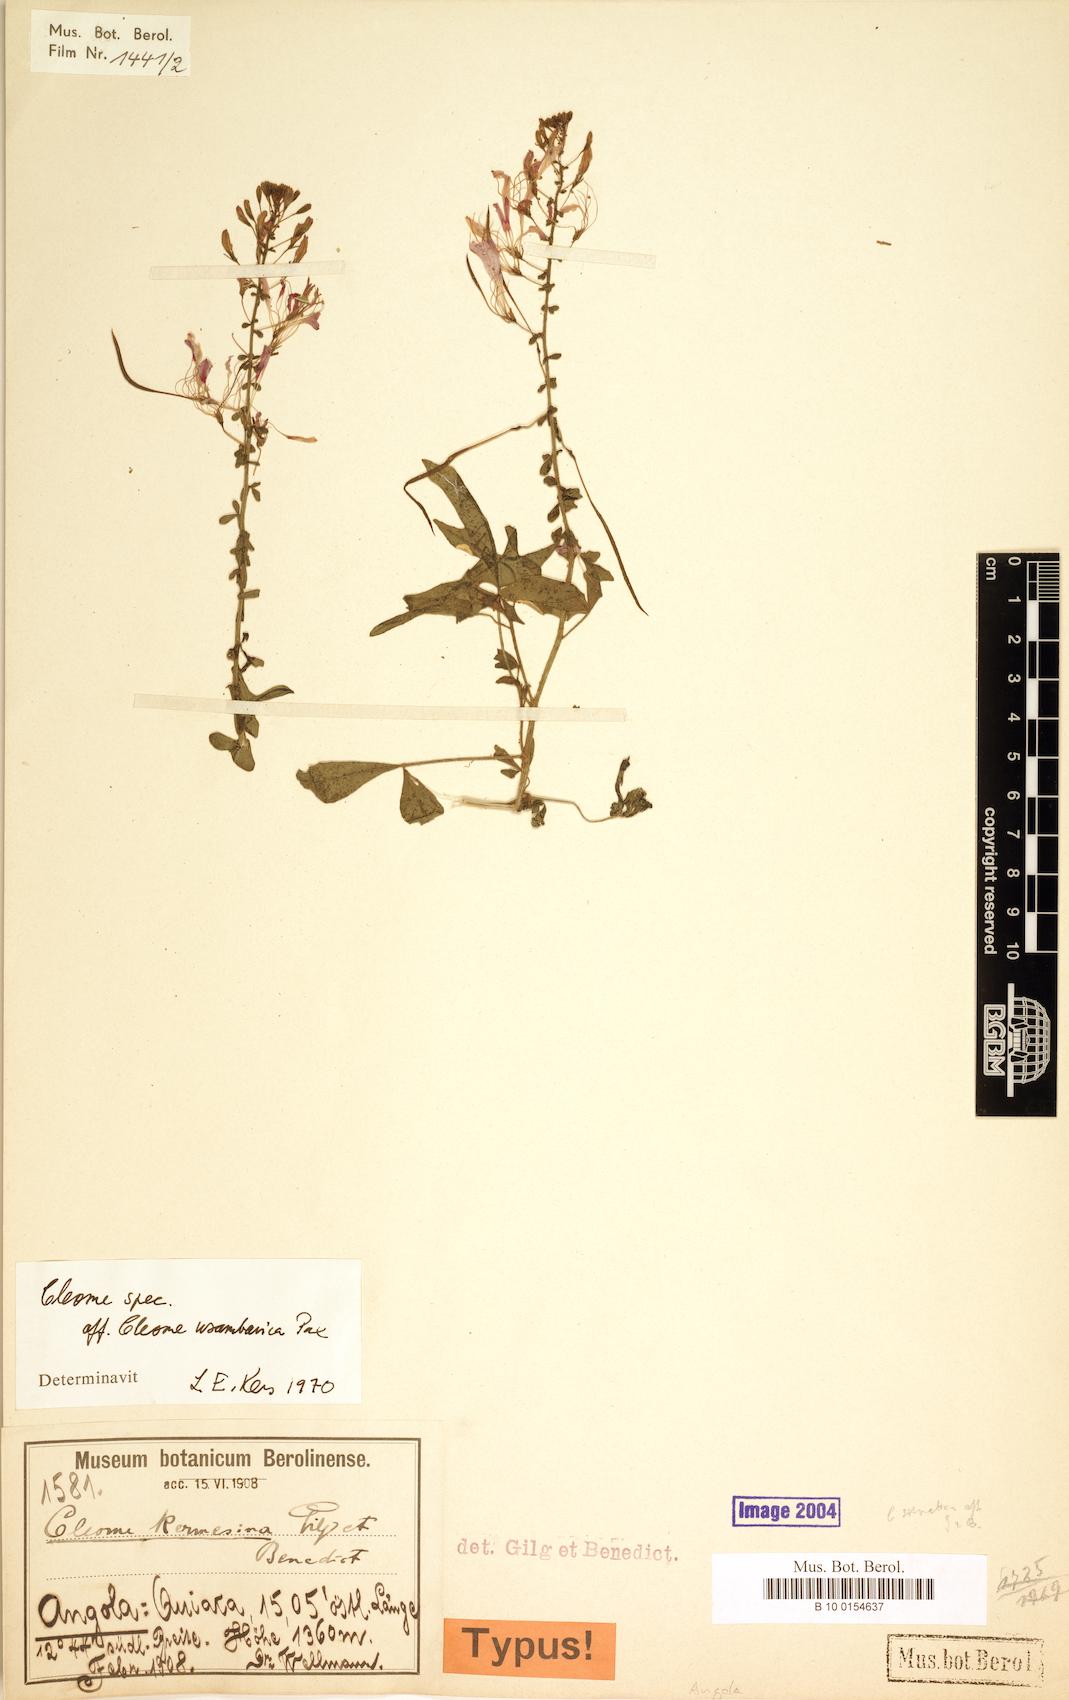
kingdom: Plantae
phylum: Tracheophyta
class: Magnoliopsida
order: Brassicales
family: Cleomaceae
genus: Sieruela
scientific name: Sieruela kermesina
